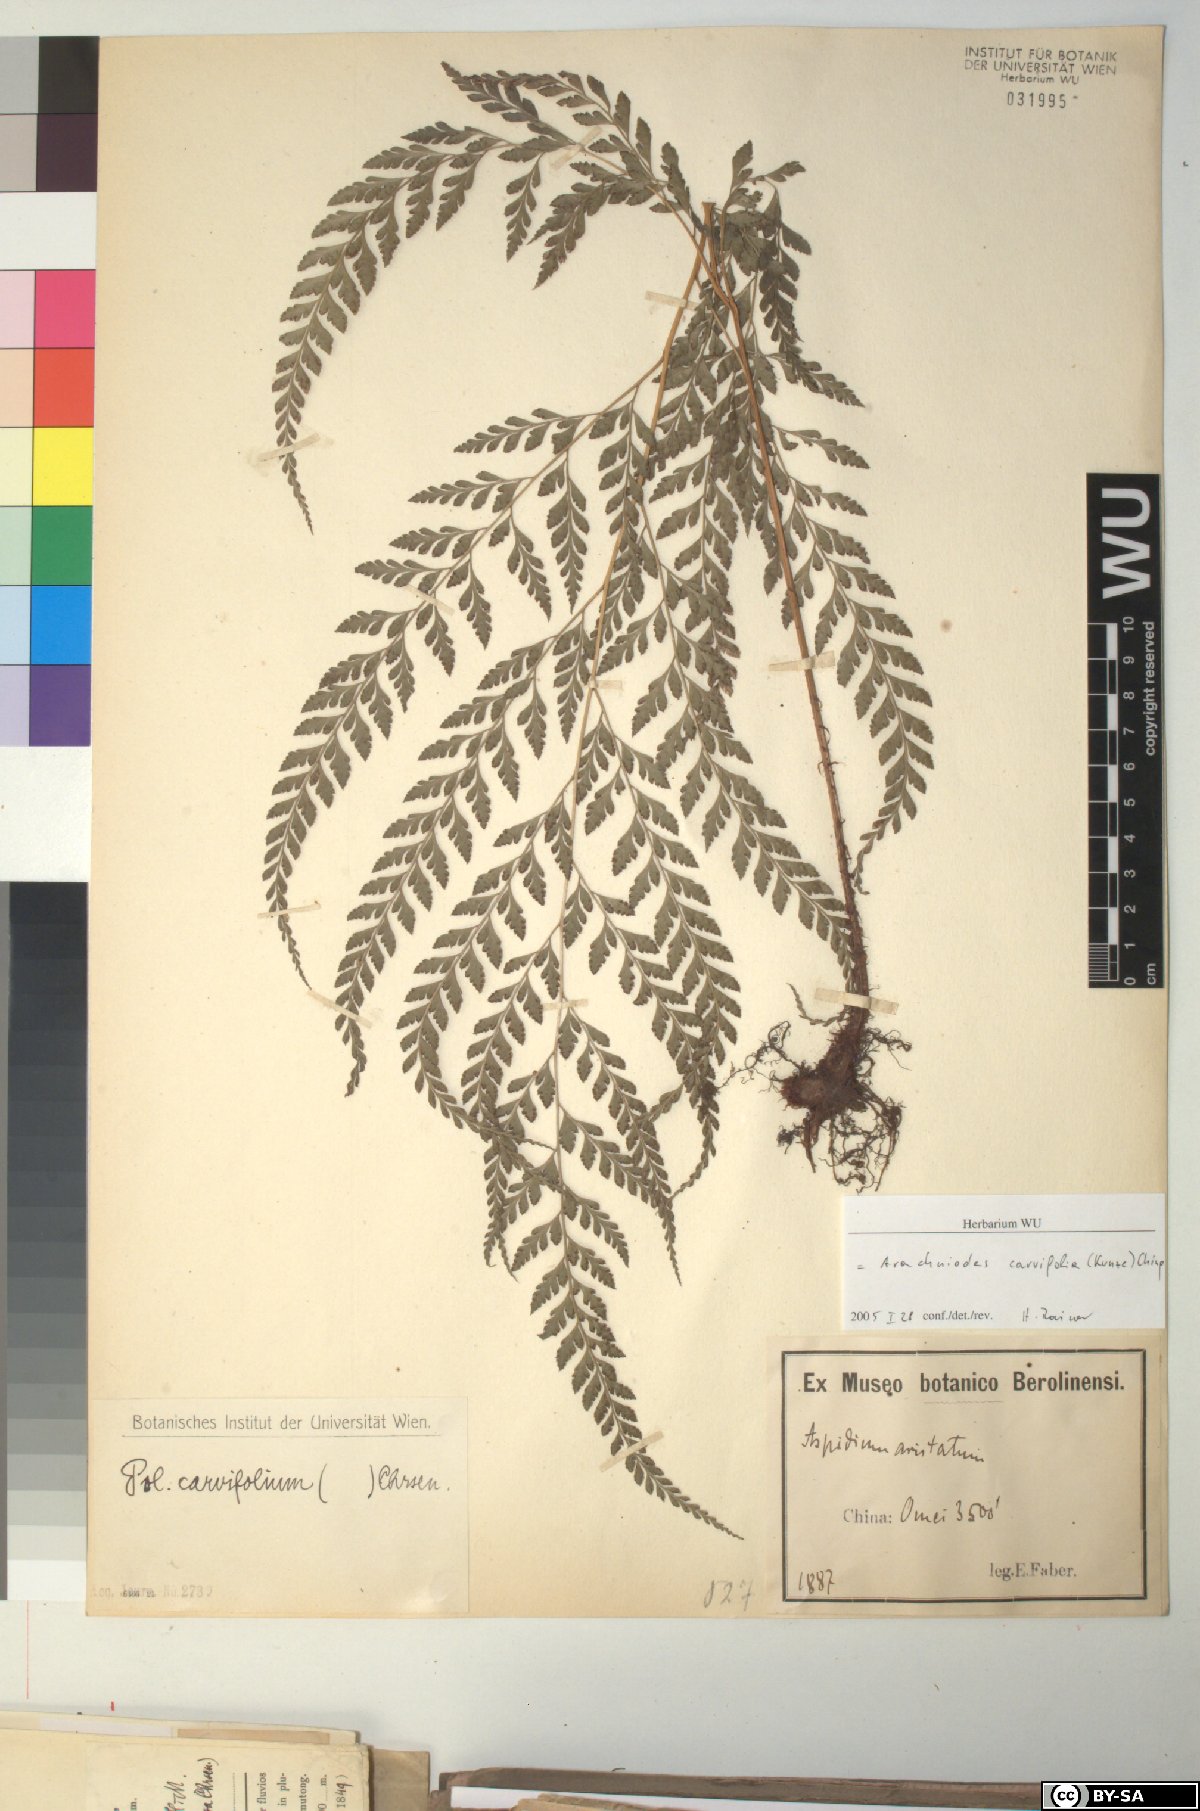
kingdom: Plantae
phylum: Tracheophyta
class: Polypodiopsida
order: Polypodiales
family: Dryopteridaceae
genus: Arachniodes
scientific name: Arachniodes carvifolia
